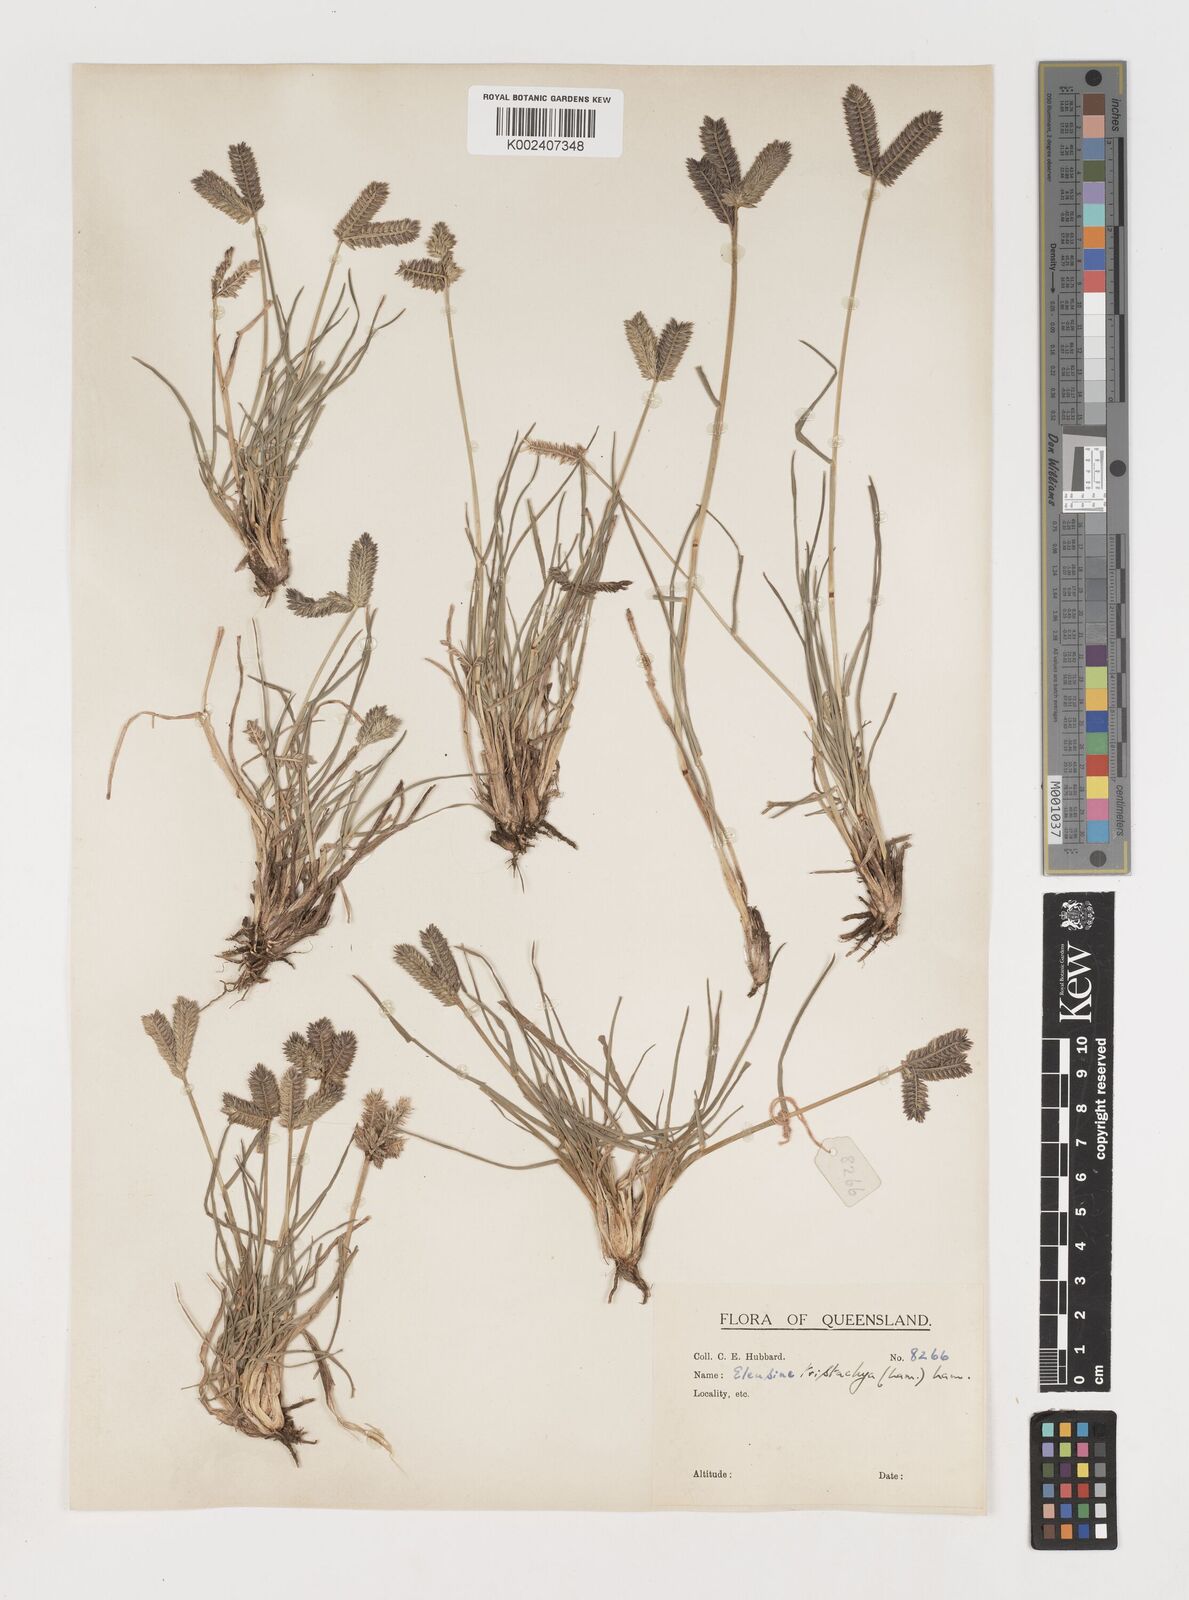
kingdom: Plantae
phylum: Tracheophyta
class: Liliopsida
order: Poales
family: Poaceae
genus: Eleusine
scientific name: Eleusine tristachya
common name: American yard-grass
